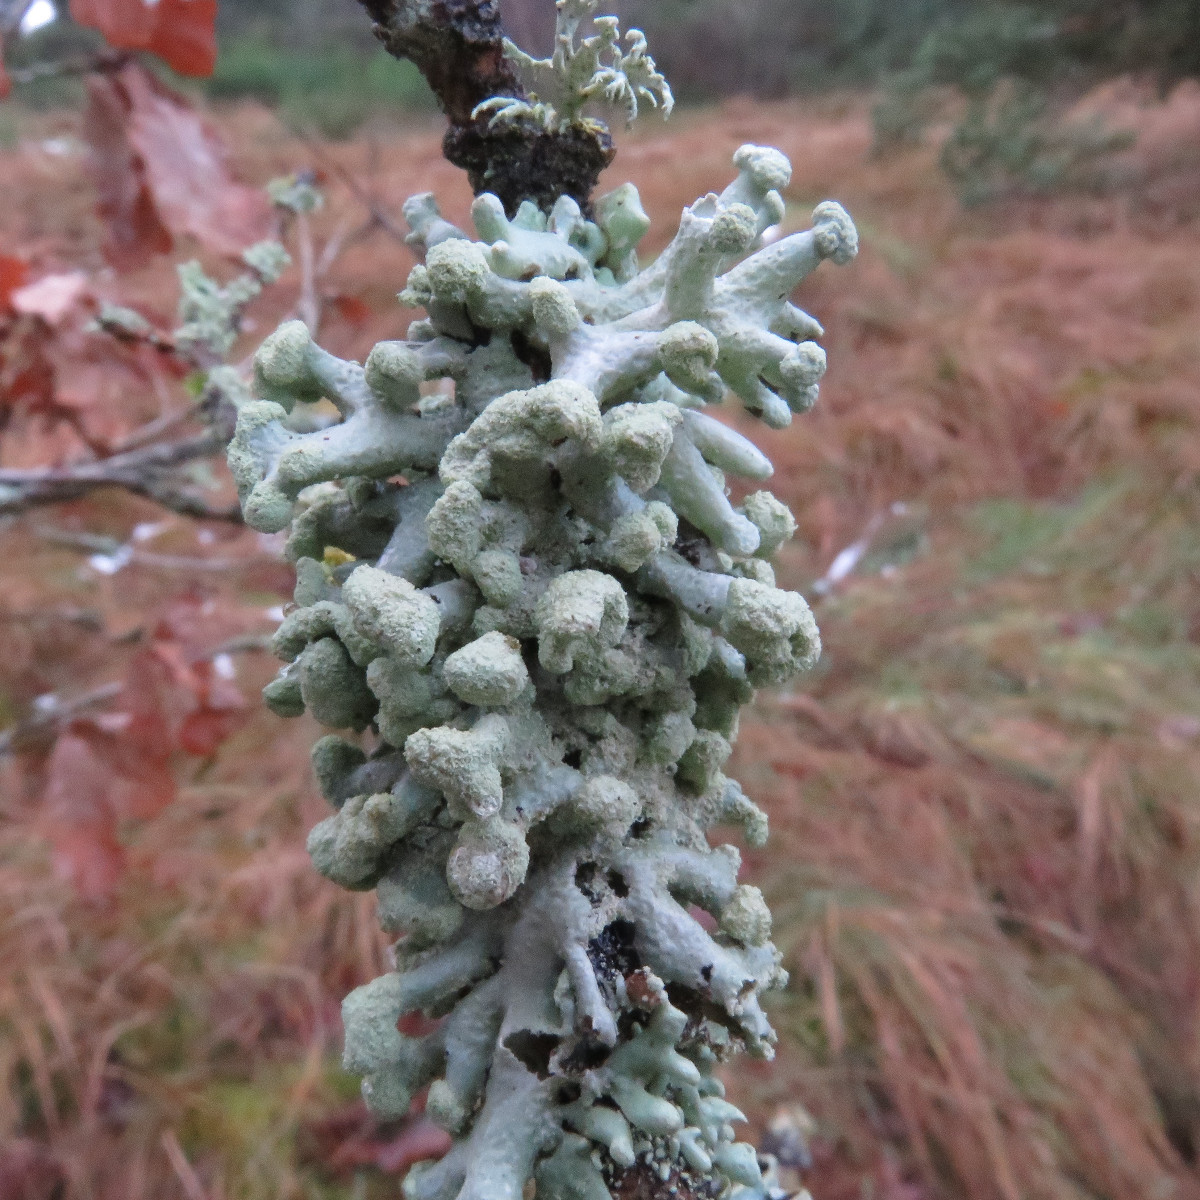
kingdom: Fungi
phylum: Ascomycota
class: Lecanoromycetes
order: Lecanorales
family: Parmeliaceae
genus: Hypogymnia
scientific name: Hypogymnia tubulosa
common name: finger-kvistlav
